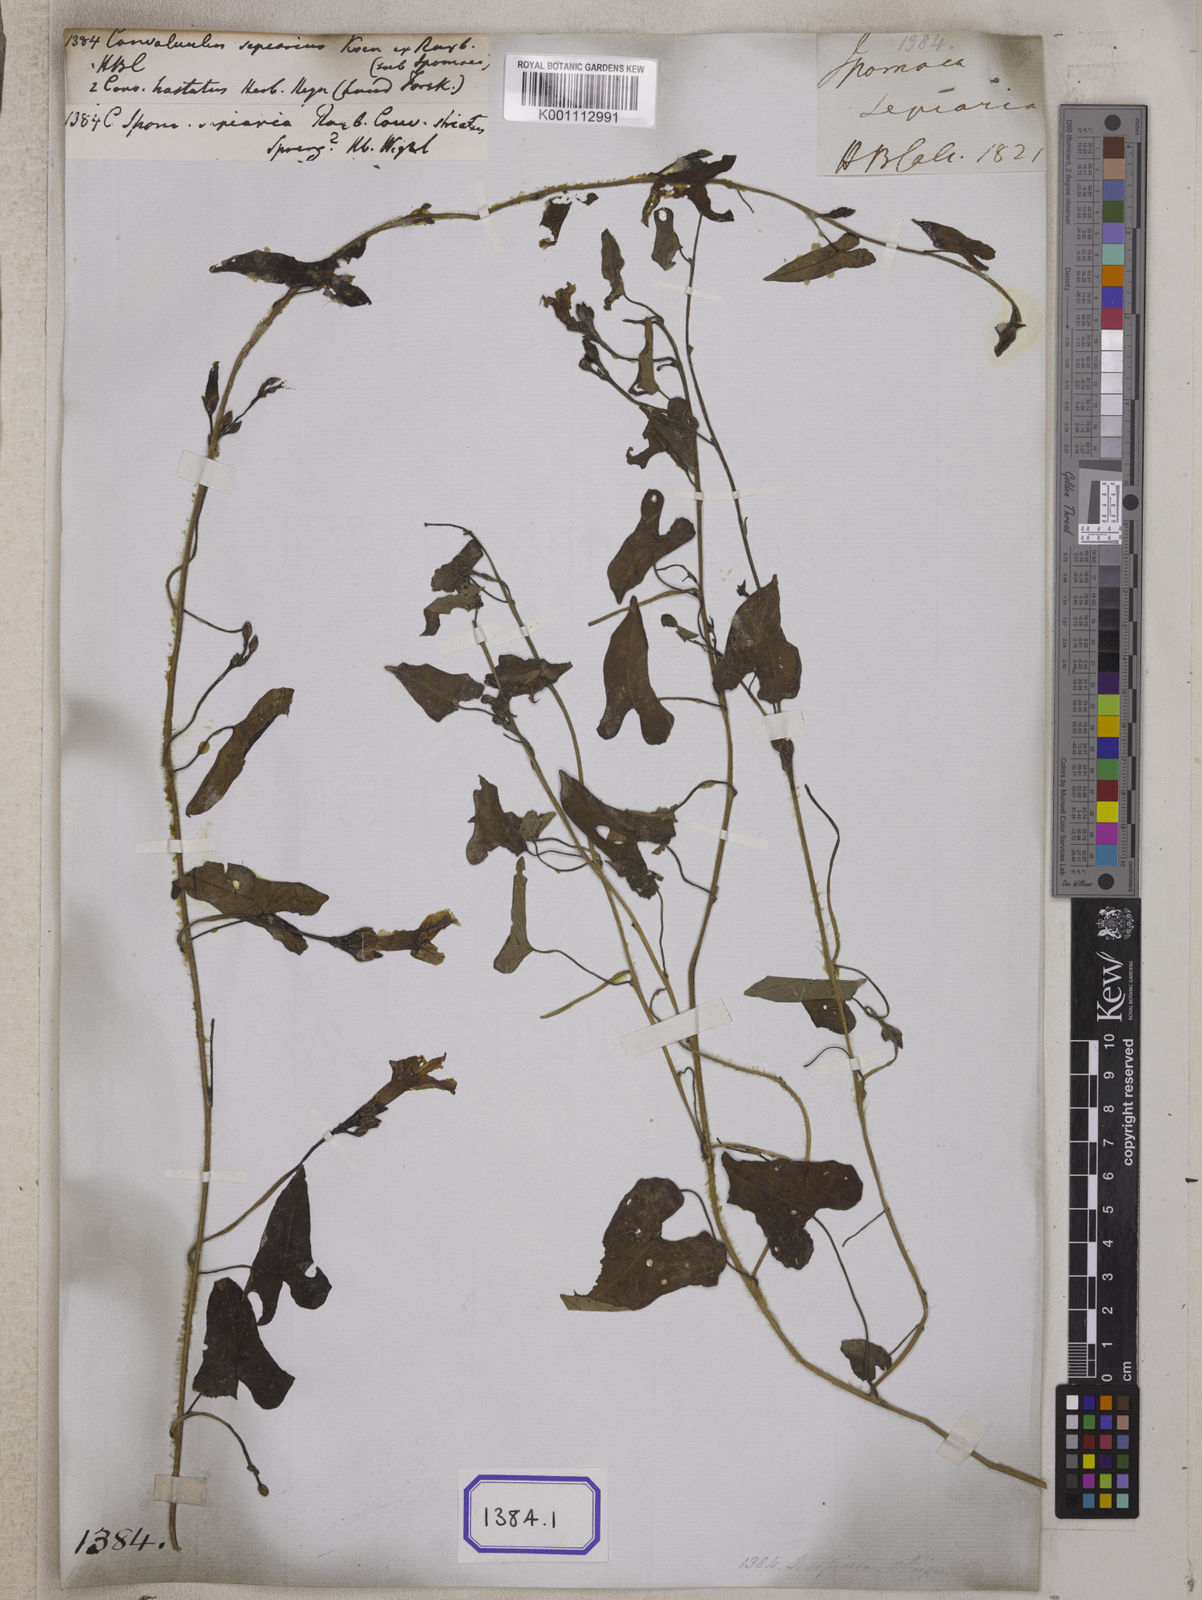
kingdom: Plantae
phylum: Tracheophyta
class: Magnoliopsida
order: Solanales
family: Convolvulaceae
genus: Ipomoea
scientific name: Ipomoea sagittifolia
